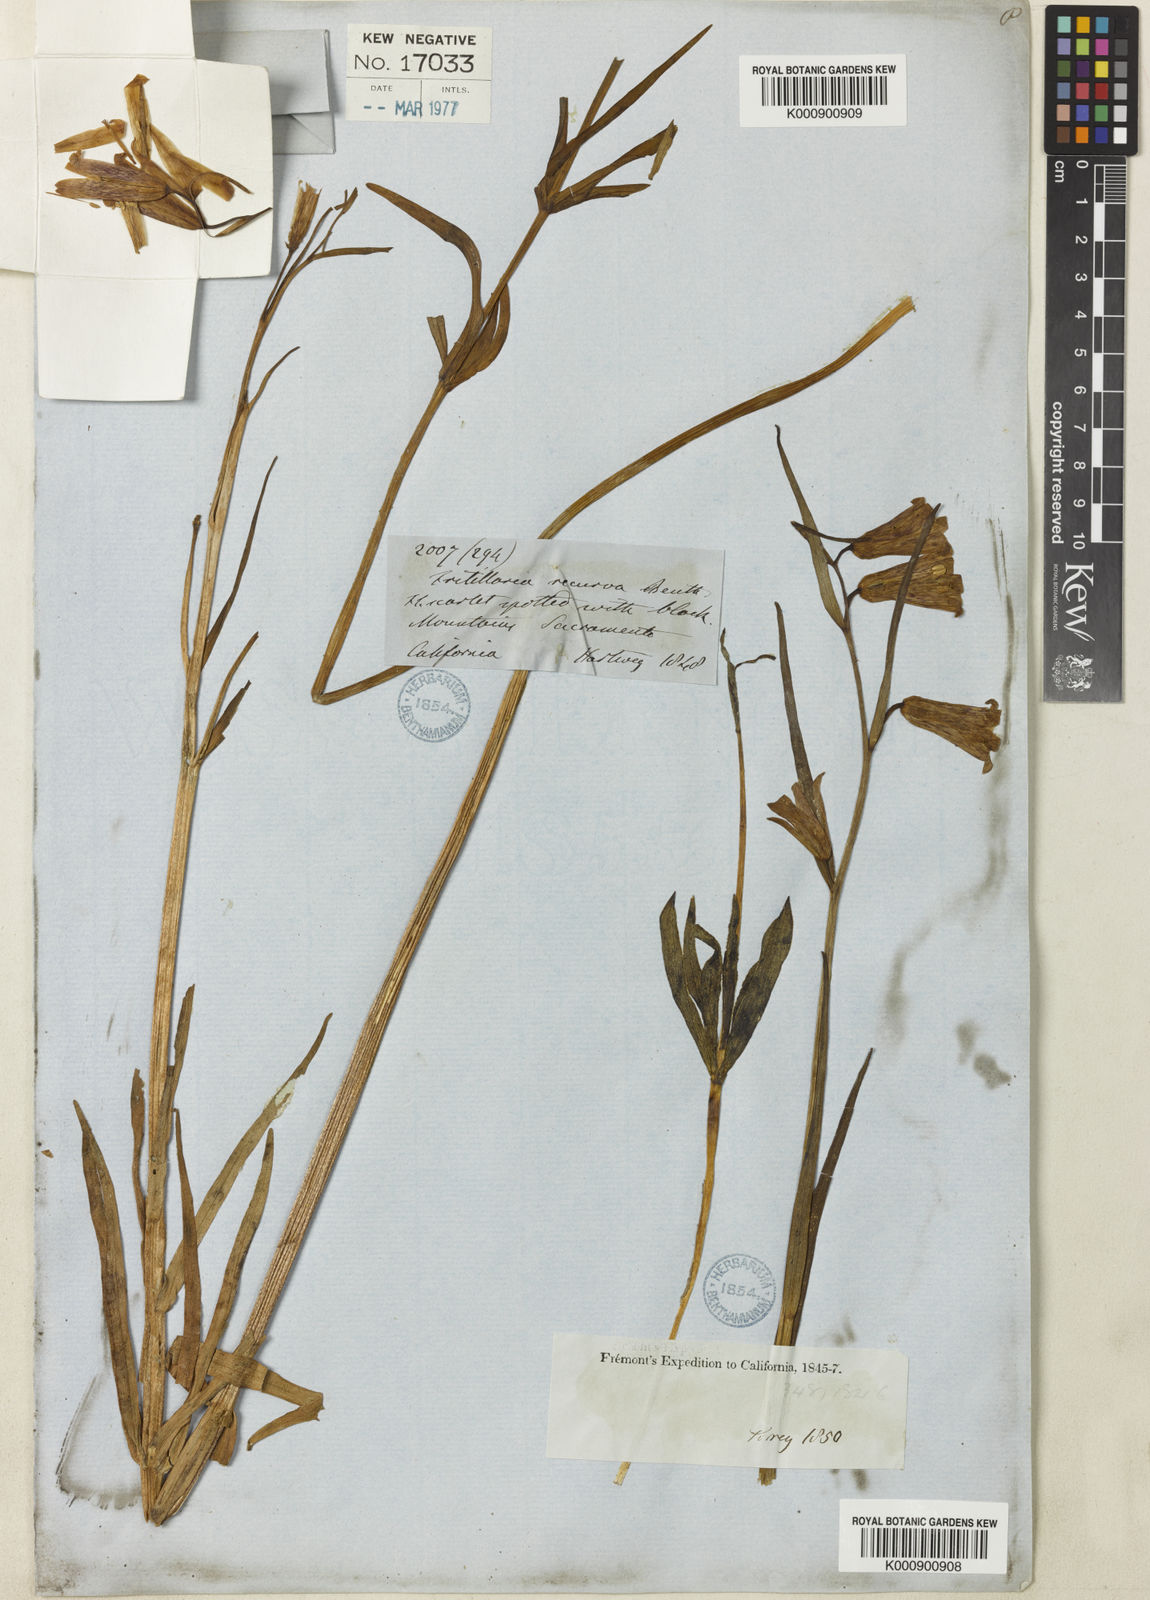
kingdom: Plantae
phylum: Tracheophyta
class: Liliopsida
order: Liliales
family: Liliaceae
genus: Fritillaria
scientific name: Fritillaria recurva
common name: Scarlet fritillary
